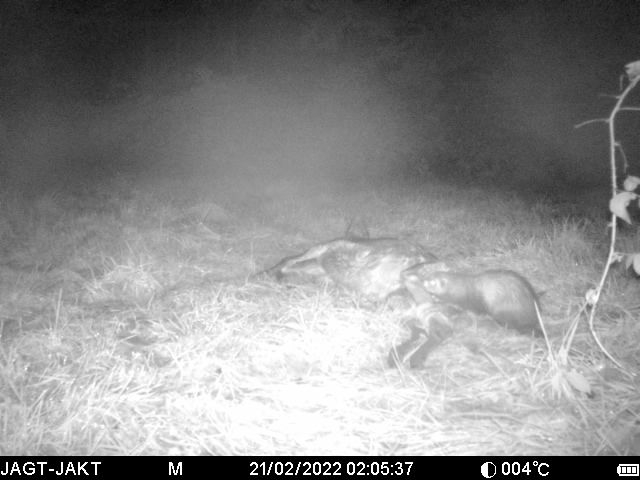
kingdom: Animalia
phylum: Chordata
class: Mammalia
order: Carnivora
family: Mustelidae
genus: Mustela
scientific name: Mustela putorius
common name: Ilder
